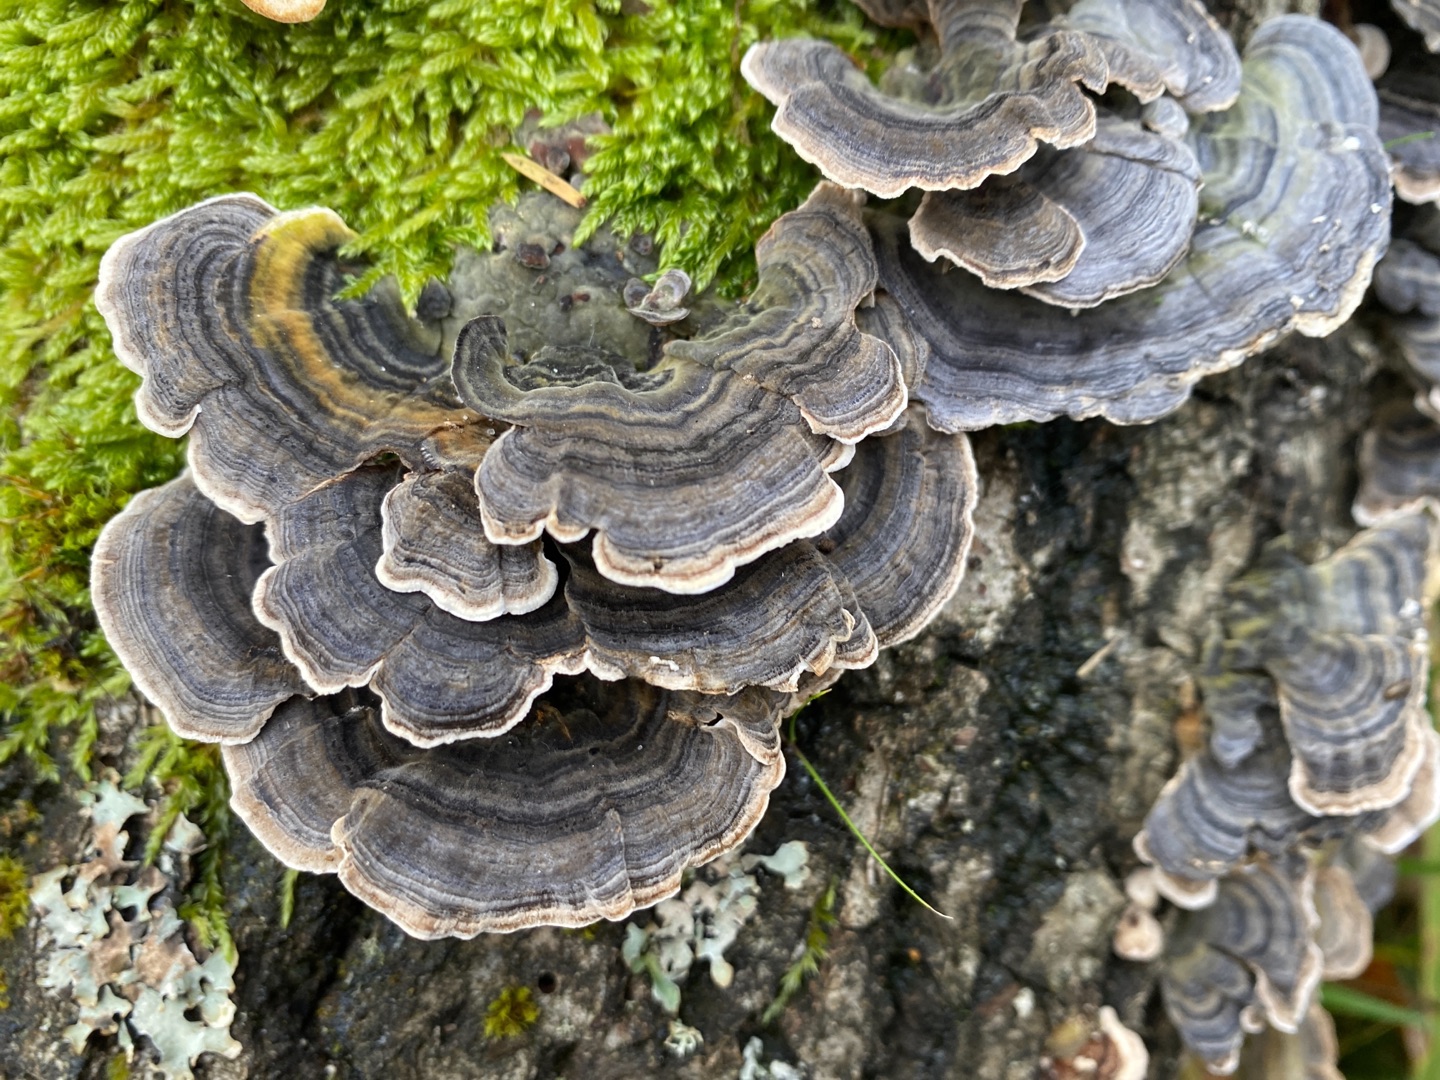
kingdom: Fungi
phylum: Basidiomycota
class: Agaricomycetes
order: Polyporales
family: Polyporaceae
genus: Trametes
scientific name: Trametes versicolor
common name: Broget læderporesvamp
